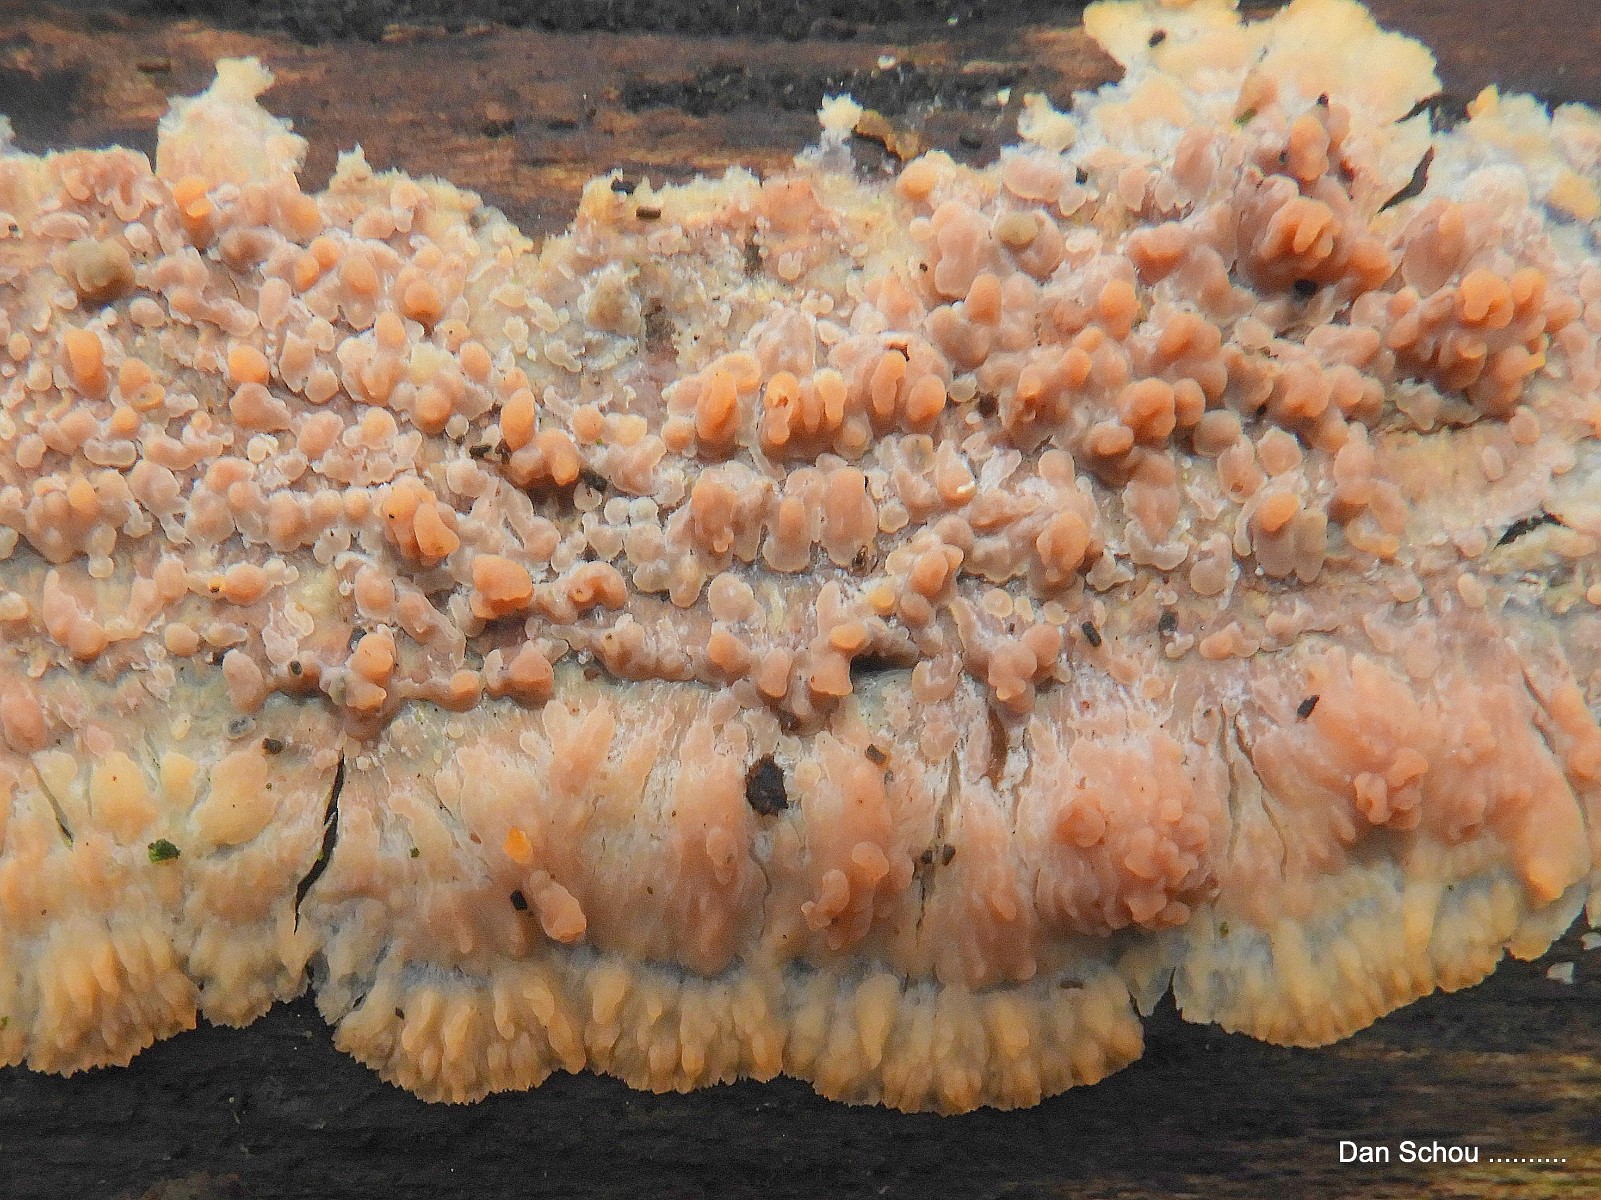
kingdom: Fungi
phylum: Basidiomycota
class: Agaricomycetes
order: Polyporales
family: Meruliaceae
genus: Phlebia
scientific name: Phlebia radiata
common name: stråle-åresvamp
